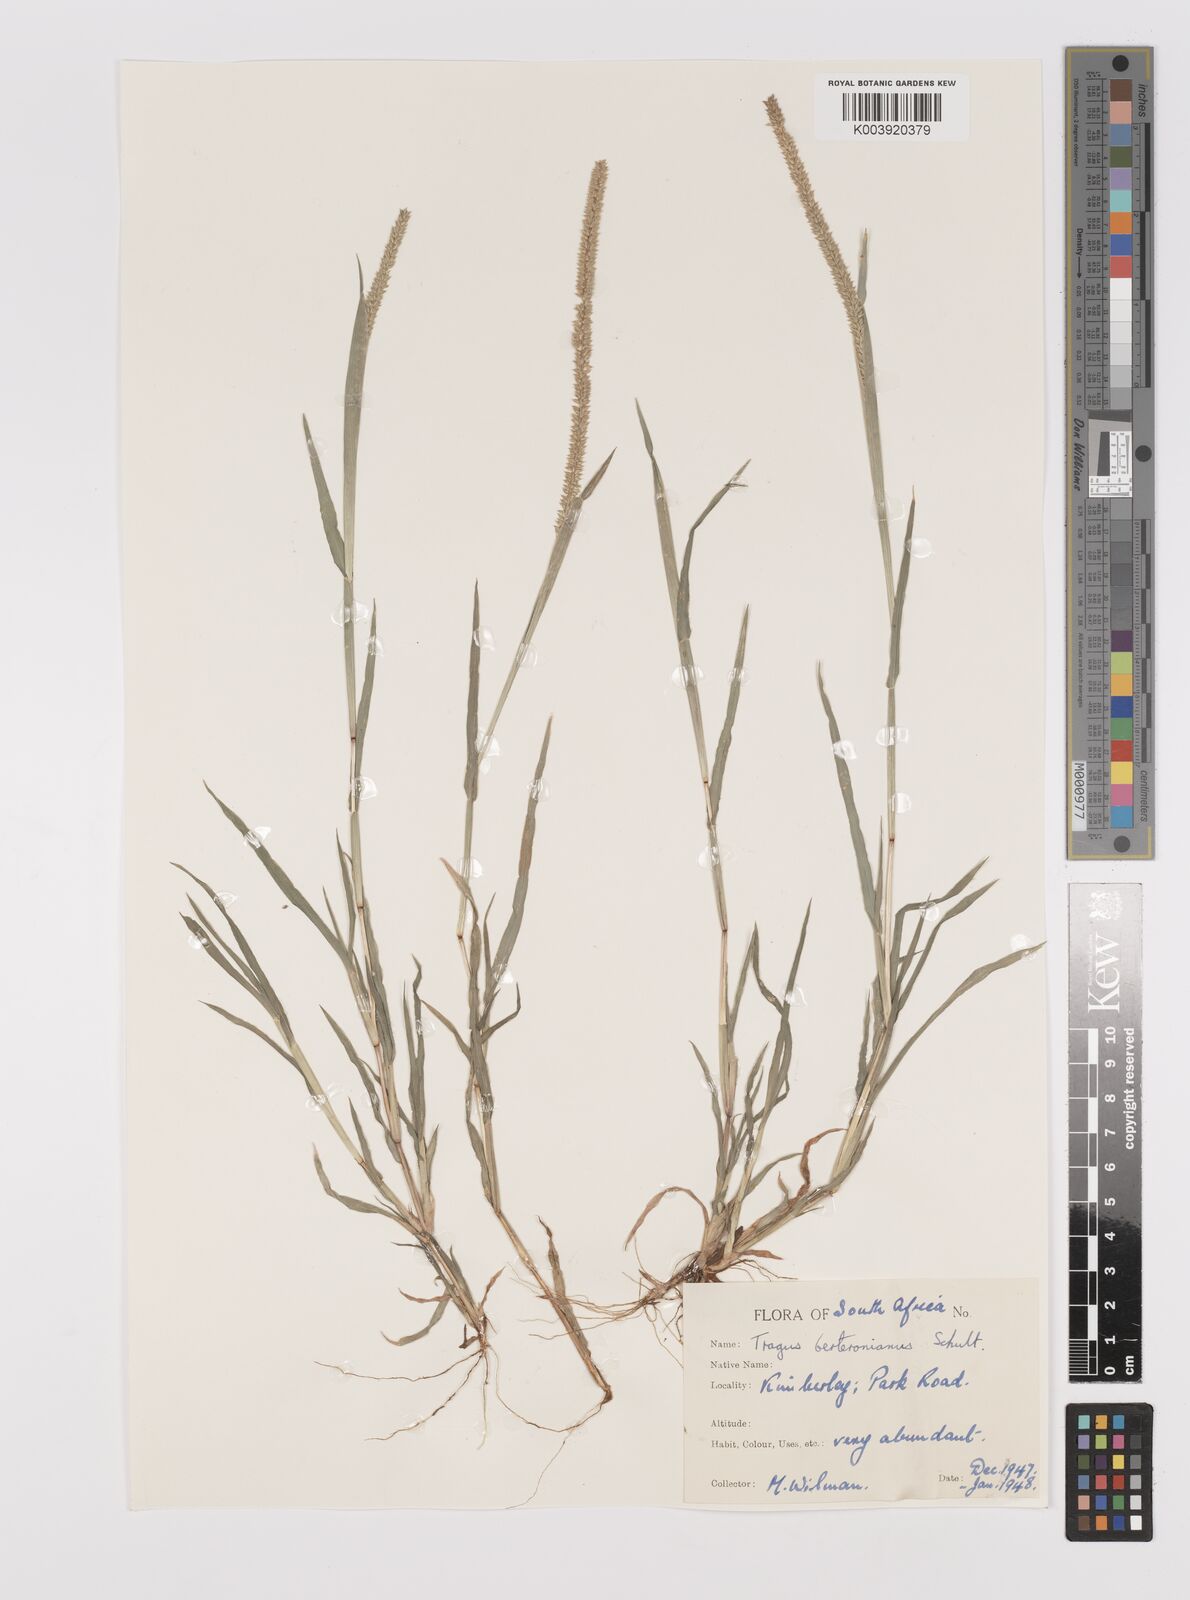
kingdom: Plantae
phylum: Tracheophyta
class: Liliopsida
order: Poales
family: Poaceae
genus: Tragus
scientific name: Tragus berteronianus
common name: African bur-grass
